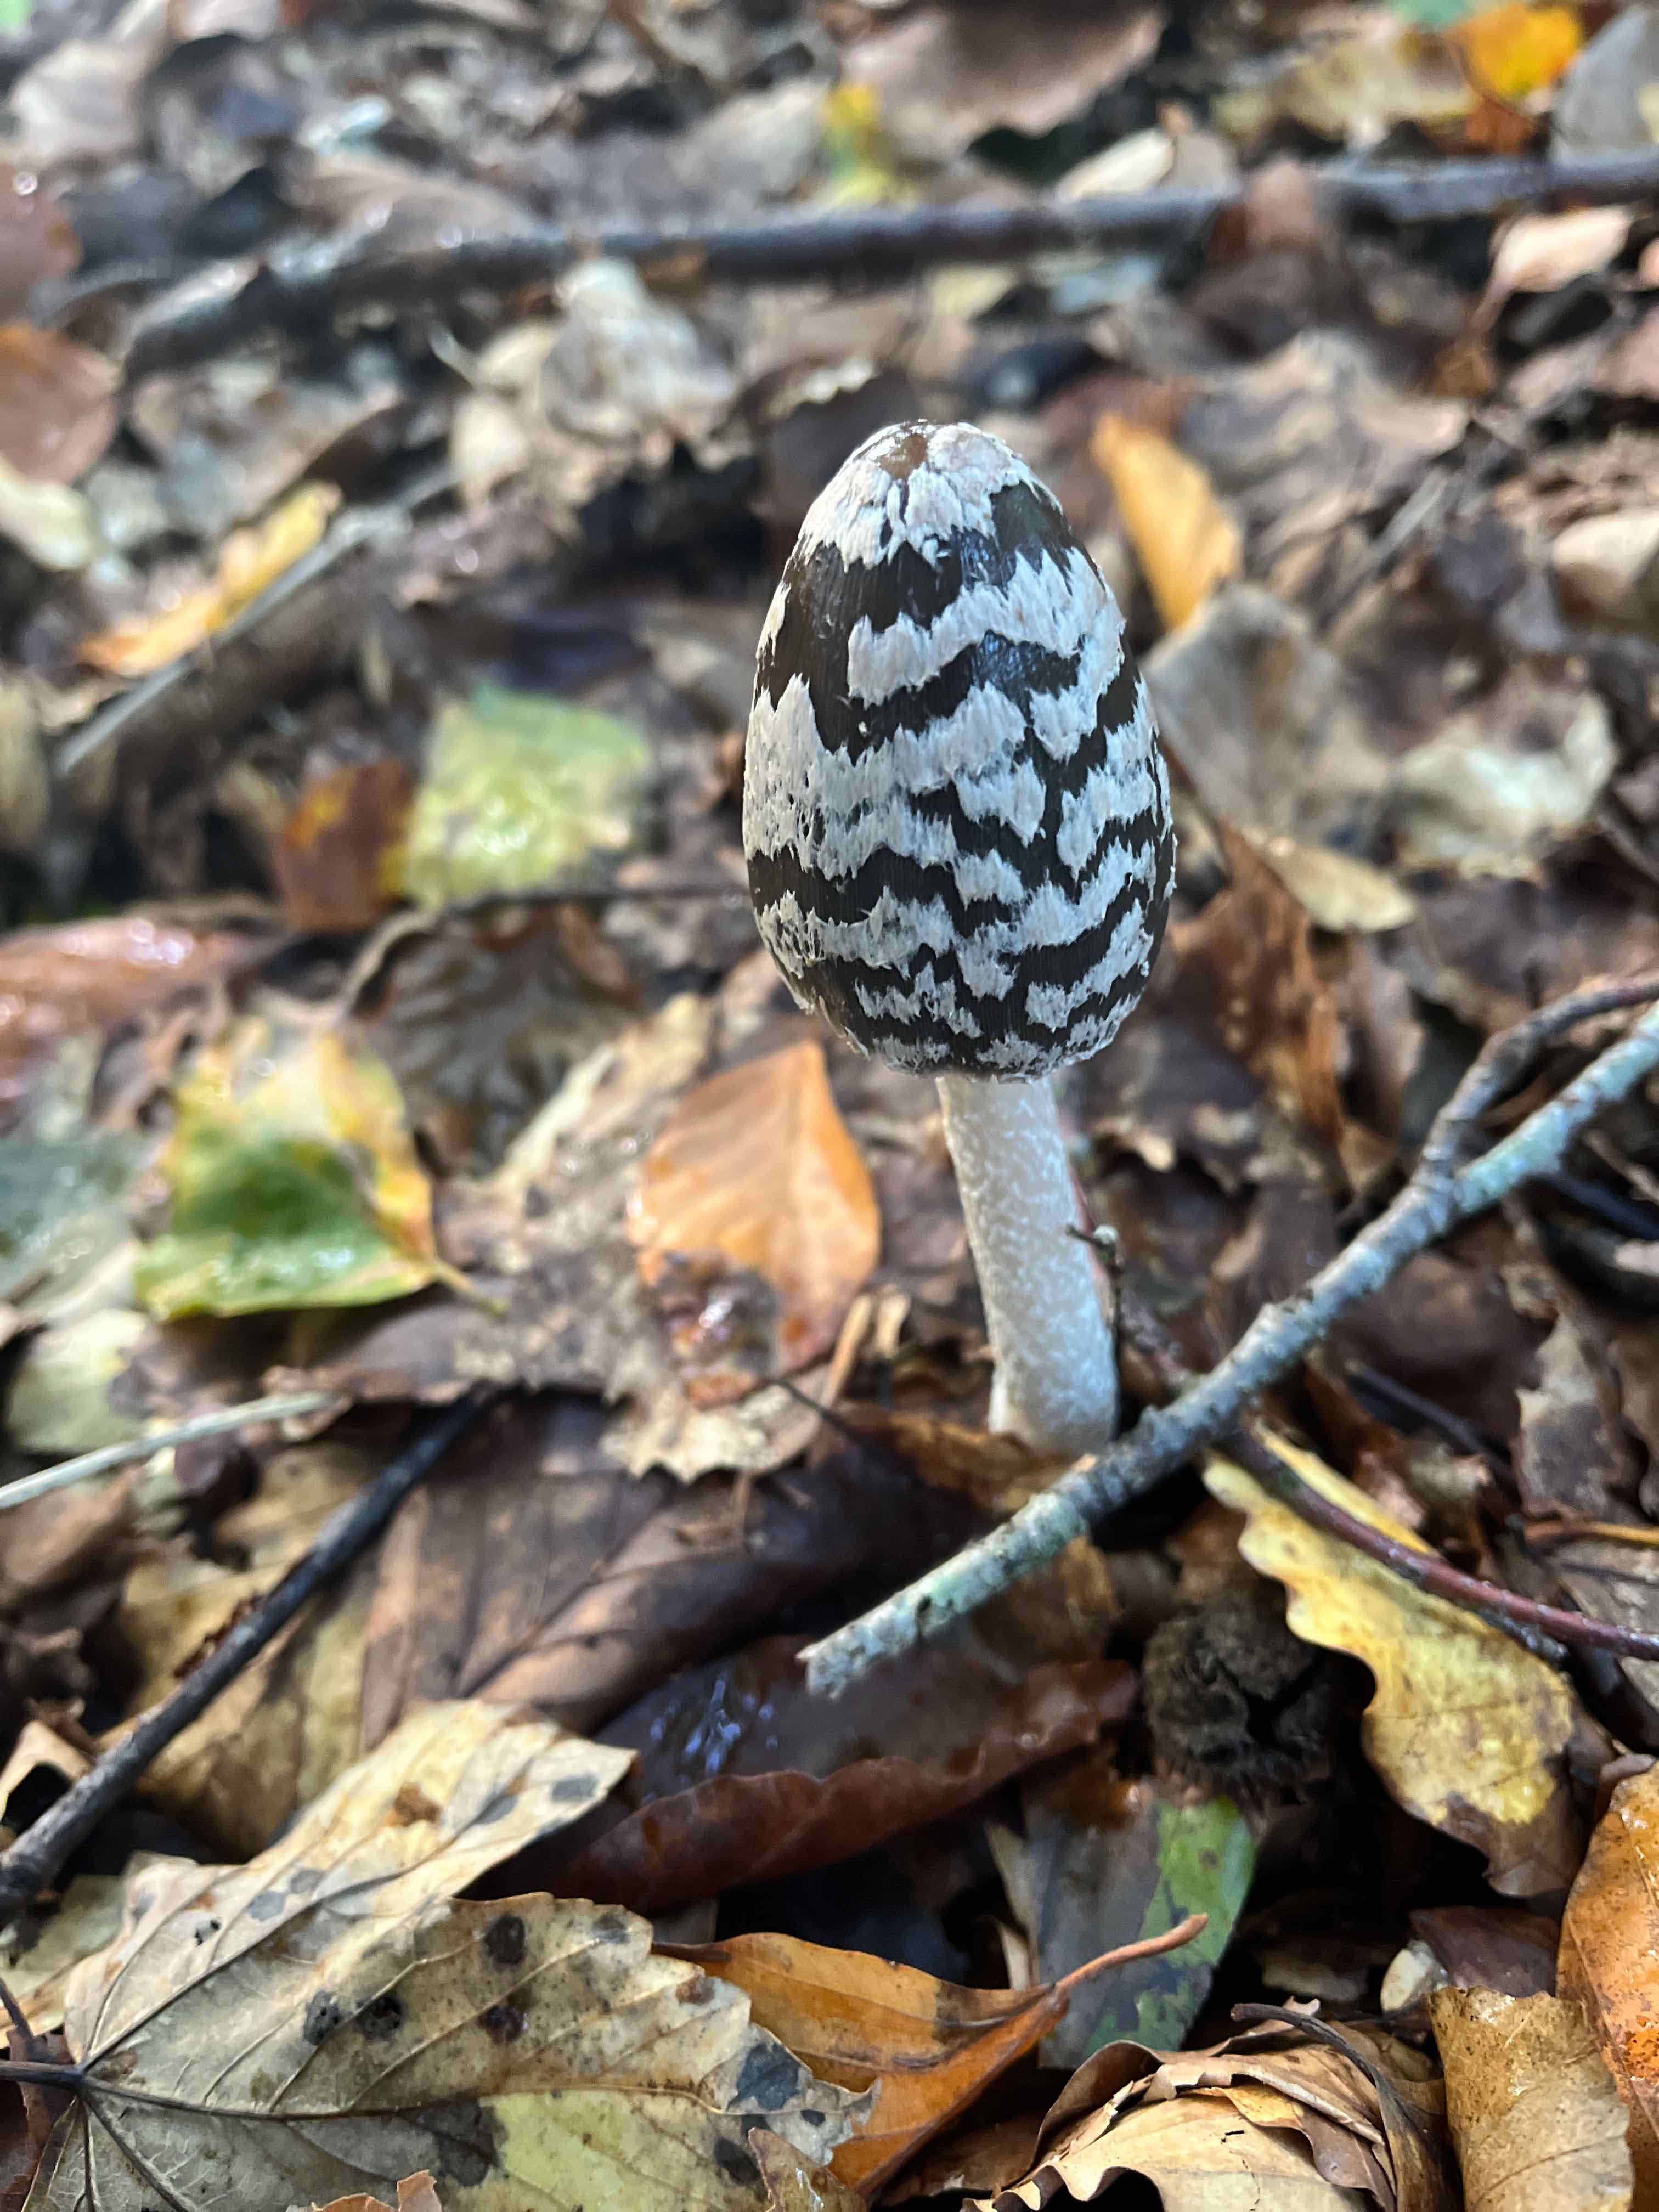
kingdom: Fungi
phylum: Basidiomycota
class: Agaricomycetes
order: Agaricales
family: Psathyrellaceae
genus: Coprinopsis
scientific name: Coprinopsis picacea
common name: skade-blækhat
